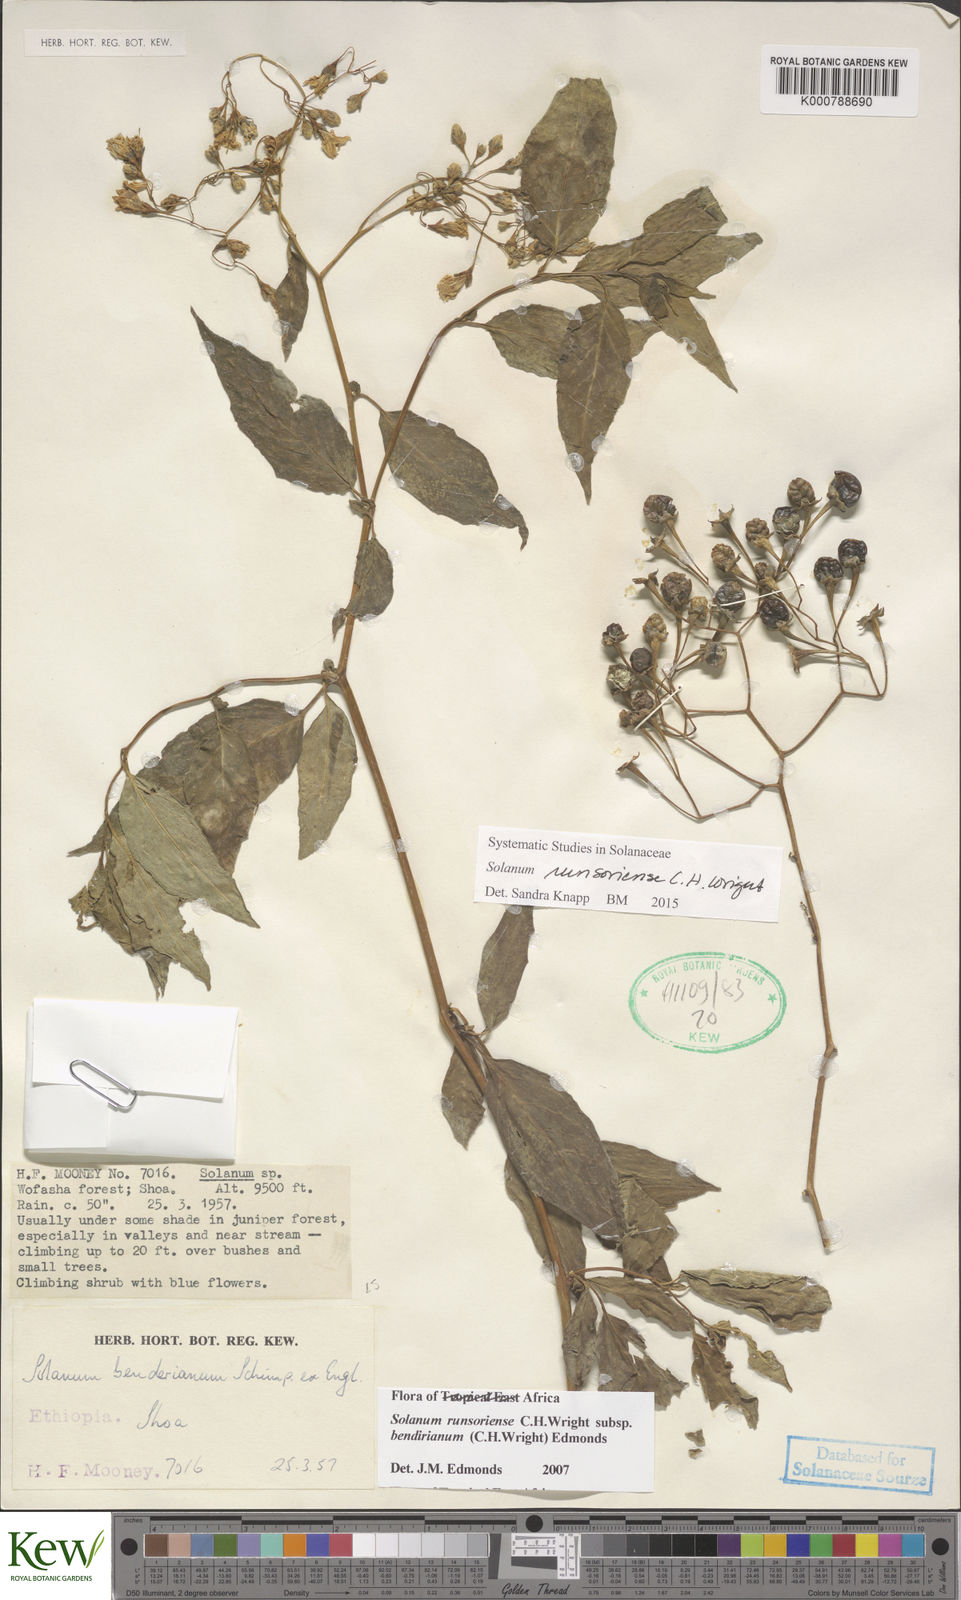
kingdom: Plantae
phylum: Tracheophyta
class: Magnoliopsida
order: Solanales
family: Solanaceae
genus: Solanum
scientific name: Solanum runsoriense
